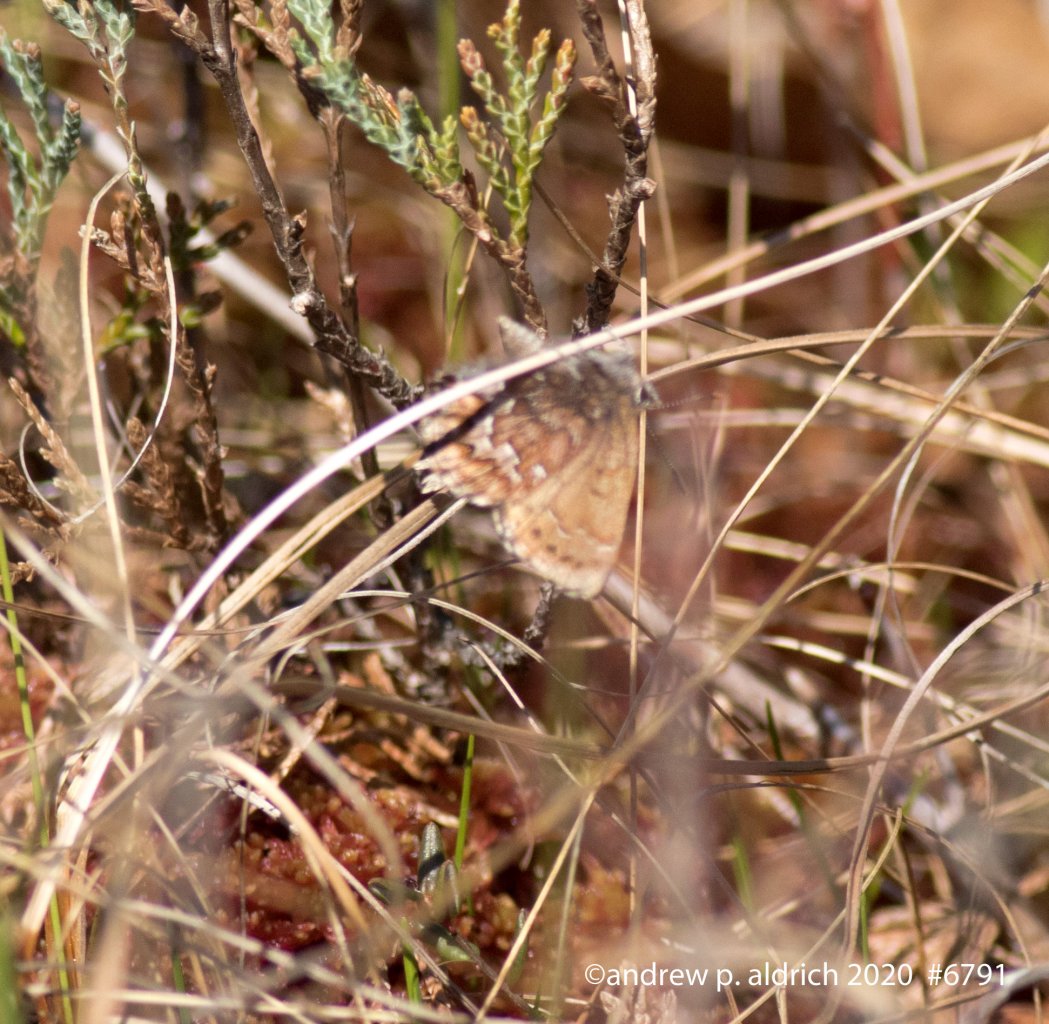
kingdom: Animalia
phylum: Arthropoda
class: Insecta
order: Lepidoptera
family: Lycaenidae
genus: Incisalia
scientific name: Incisalia niphon
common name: Eastern Pine Elfin
